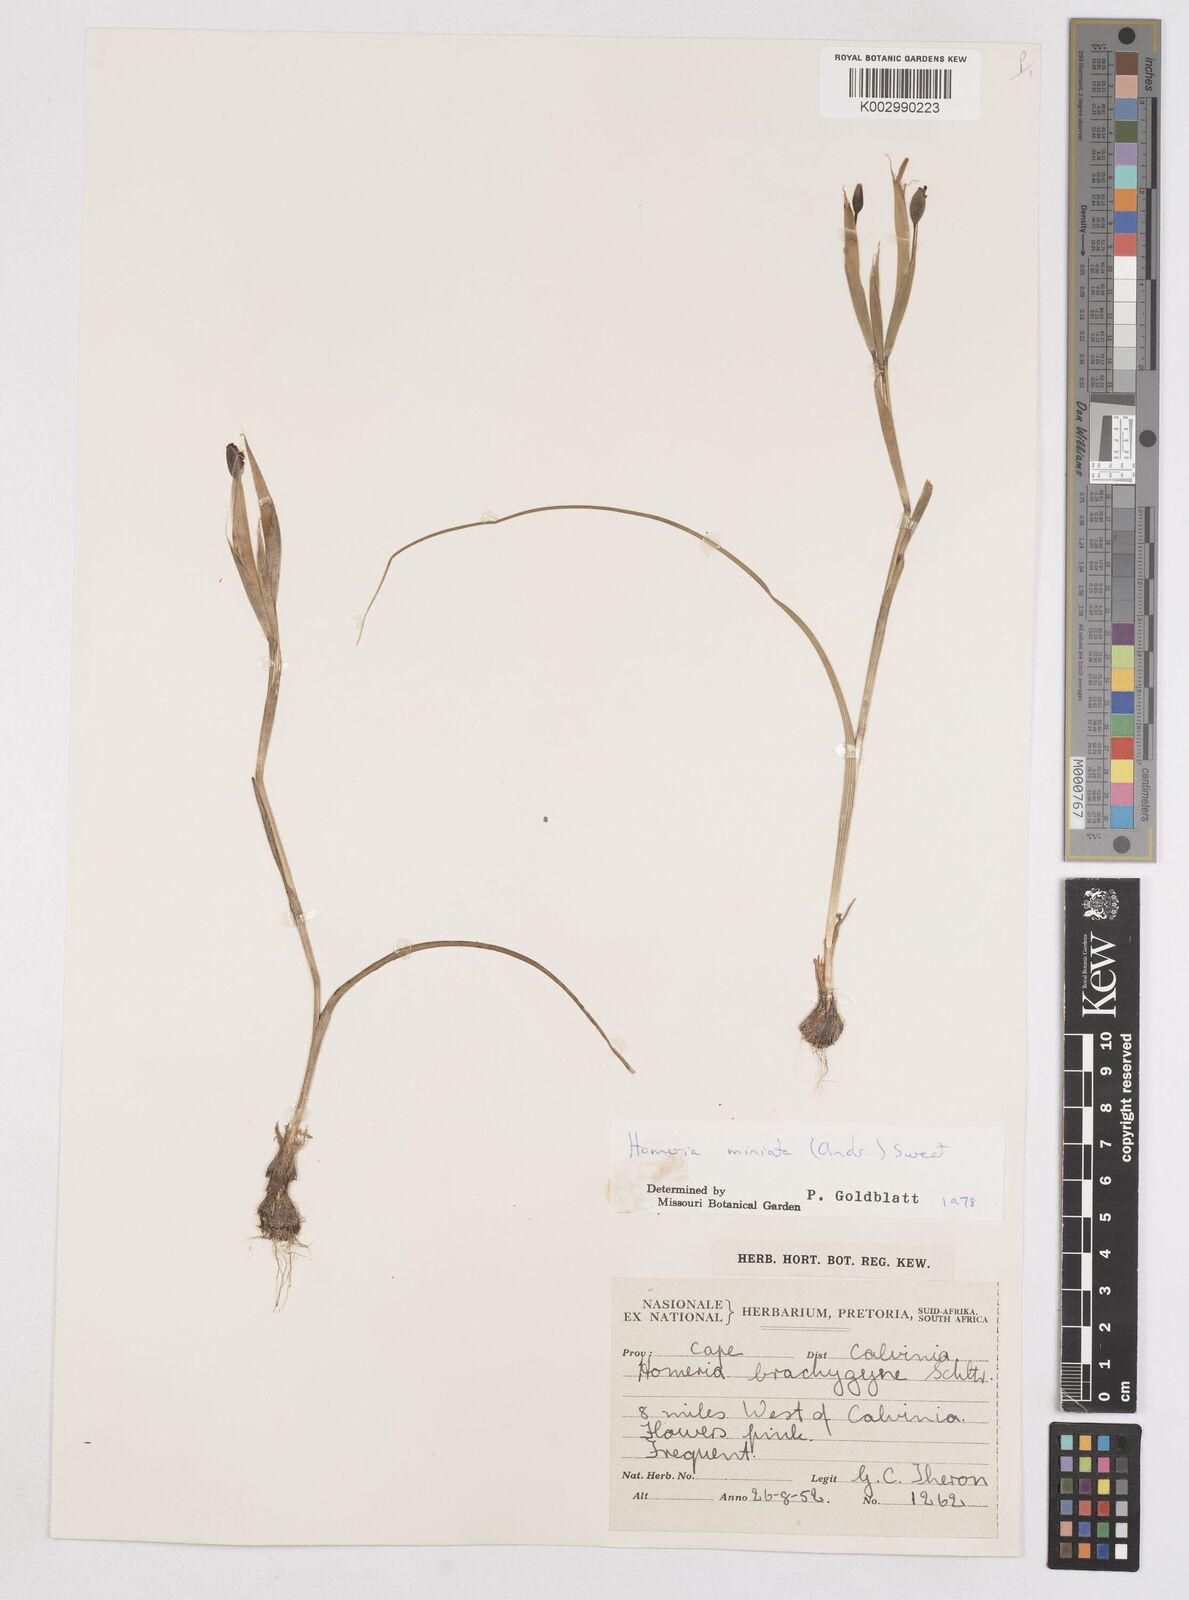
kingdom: Plantae
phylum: Tracheophyta
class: Liliopsida
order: Asparagales
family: Iridaceae
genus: Moraea
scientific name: Moraea miniata
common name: Two-leaf cape-tulip
